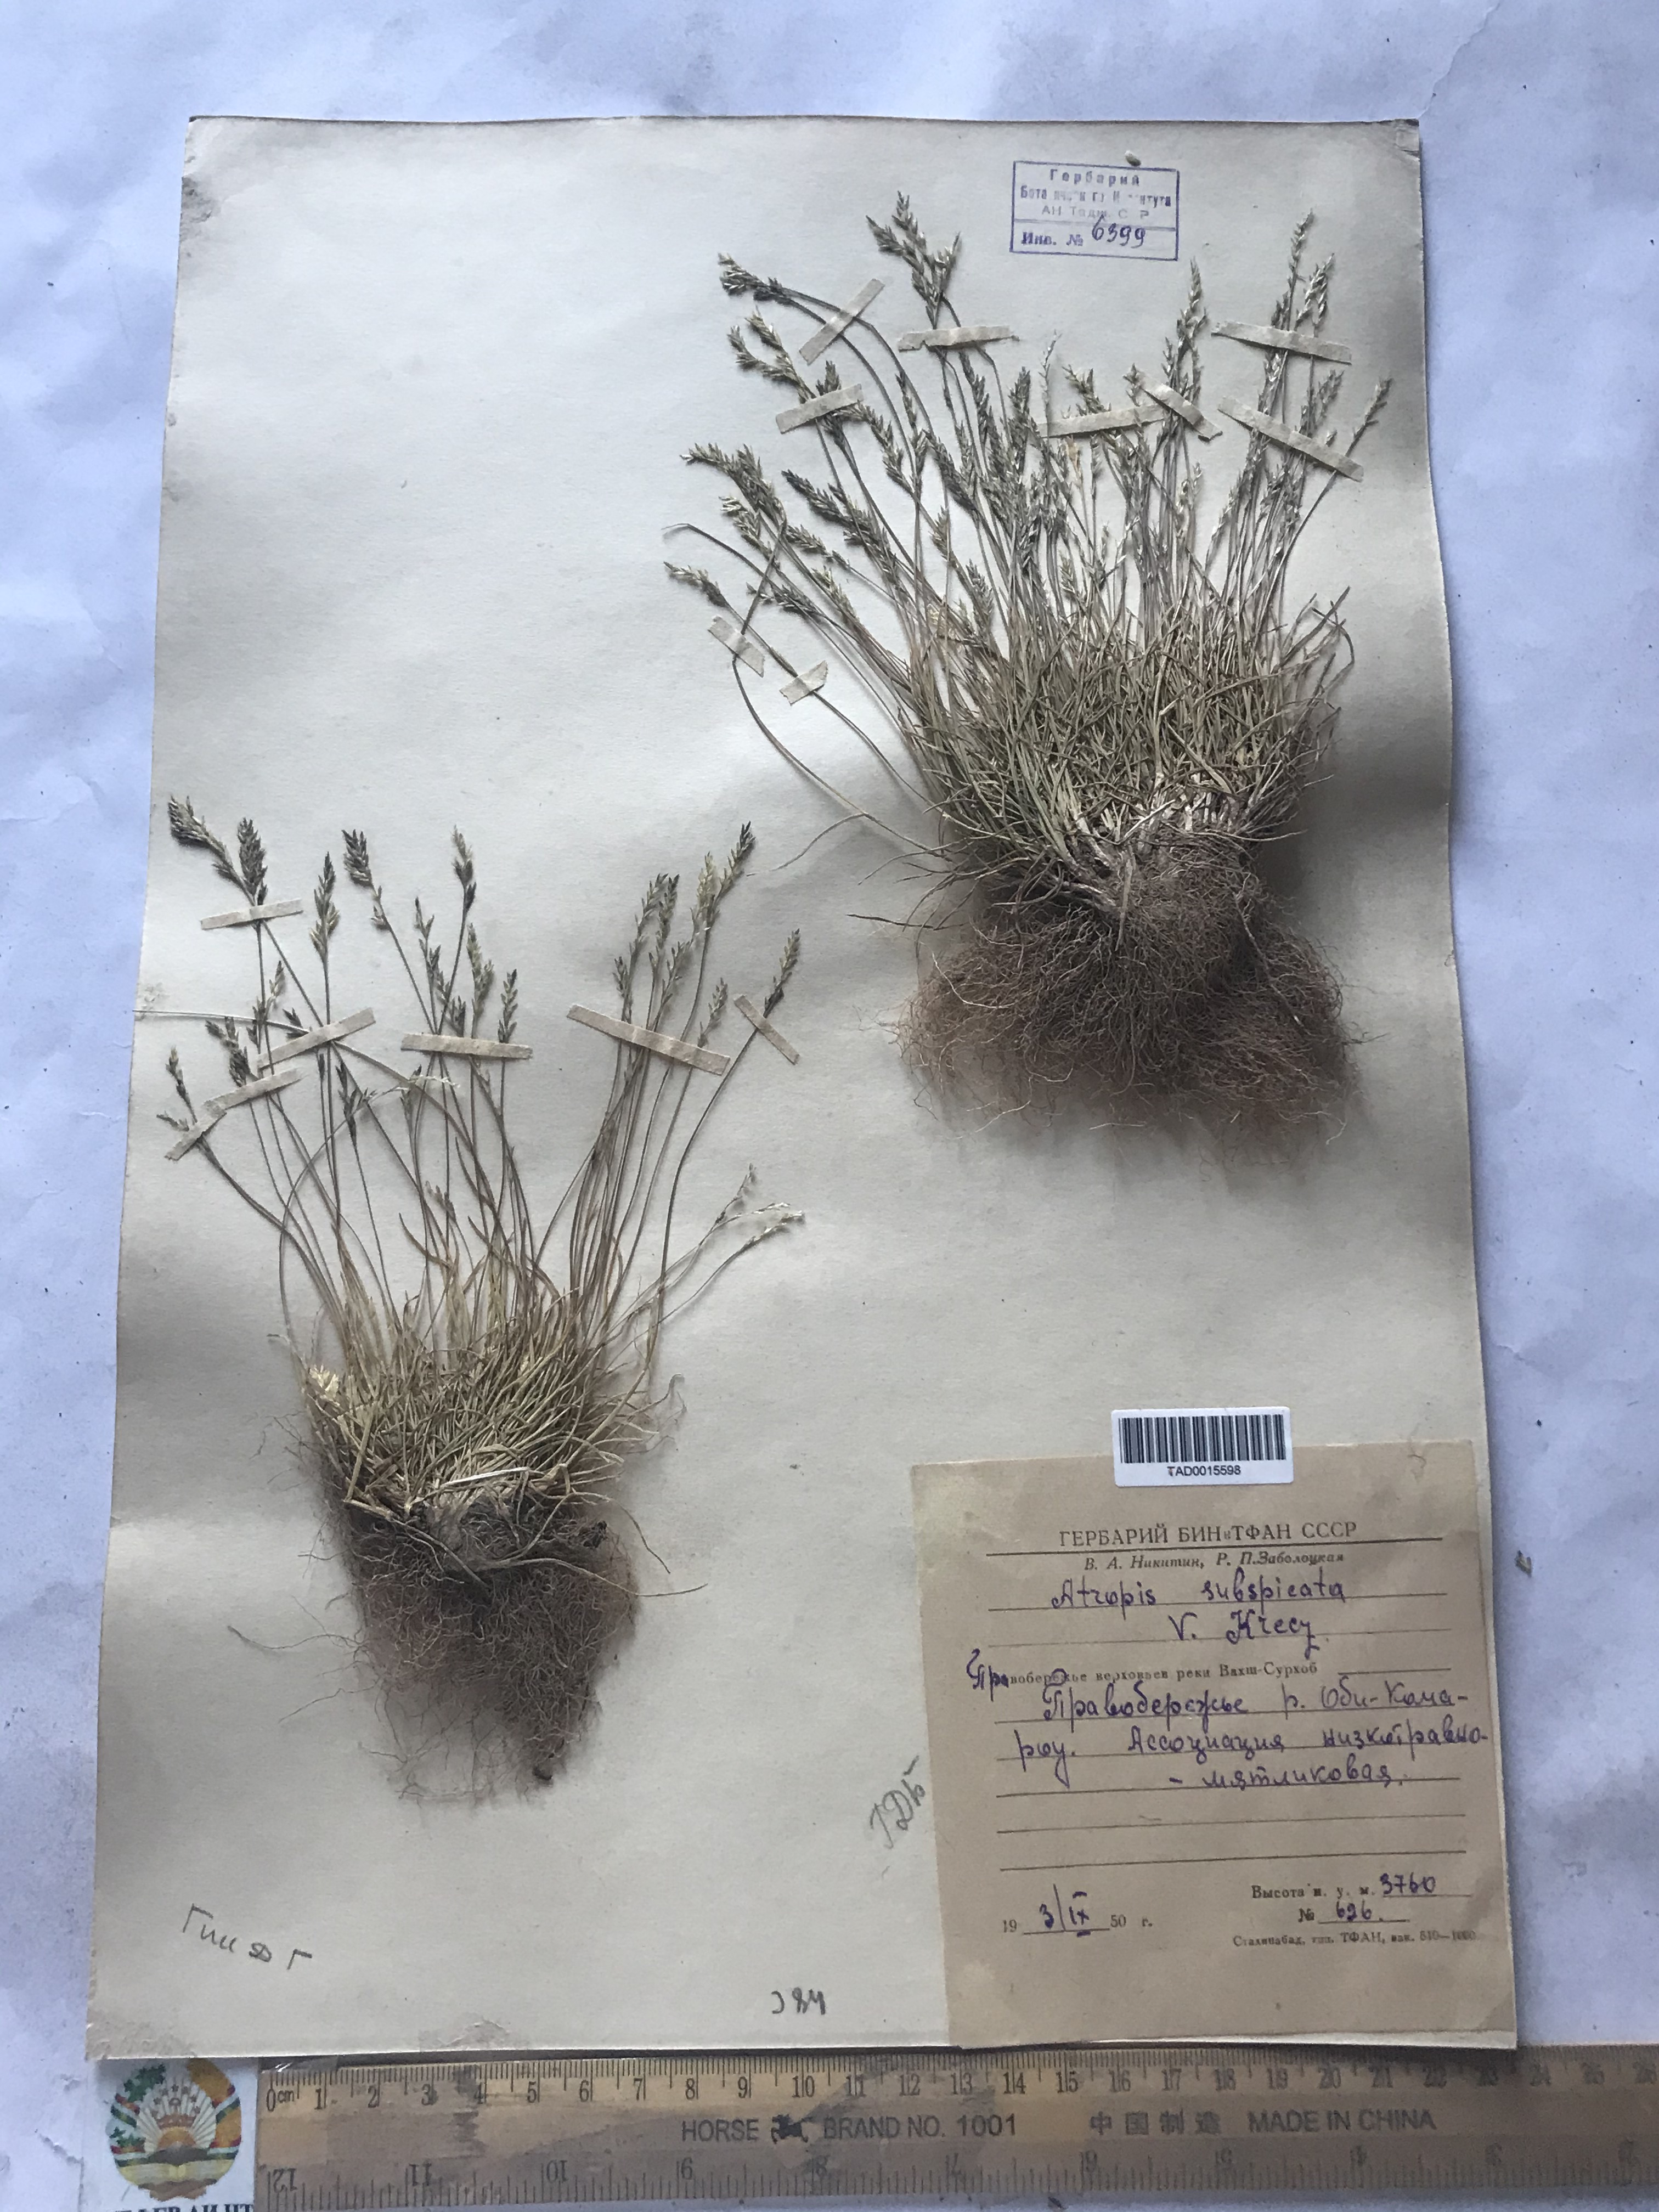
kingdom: Plantae
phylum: Tracheophyta
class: Liliopsida
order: Poales
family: Poaceae
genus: Puccinellia
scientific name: Puccinellia subspicata
